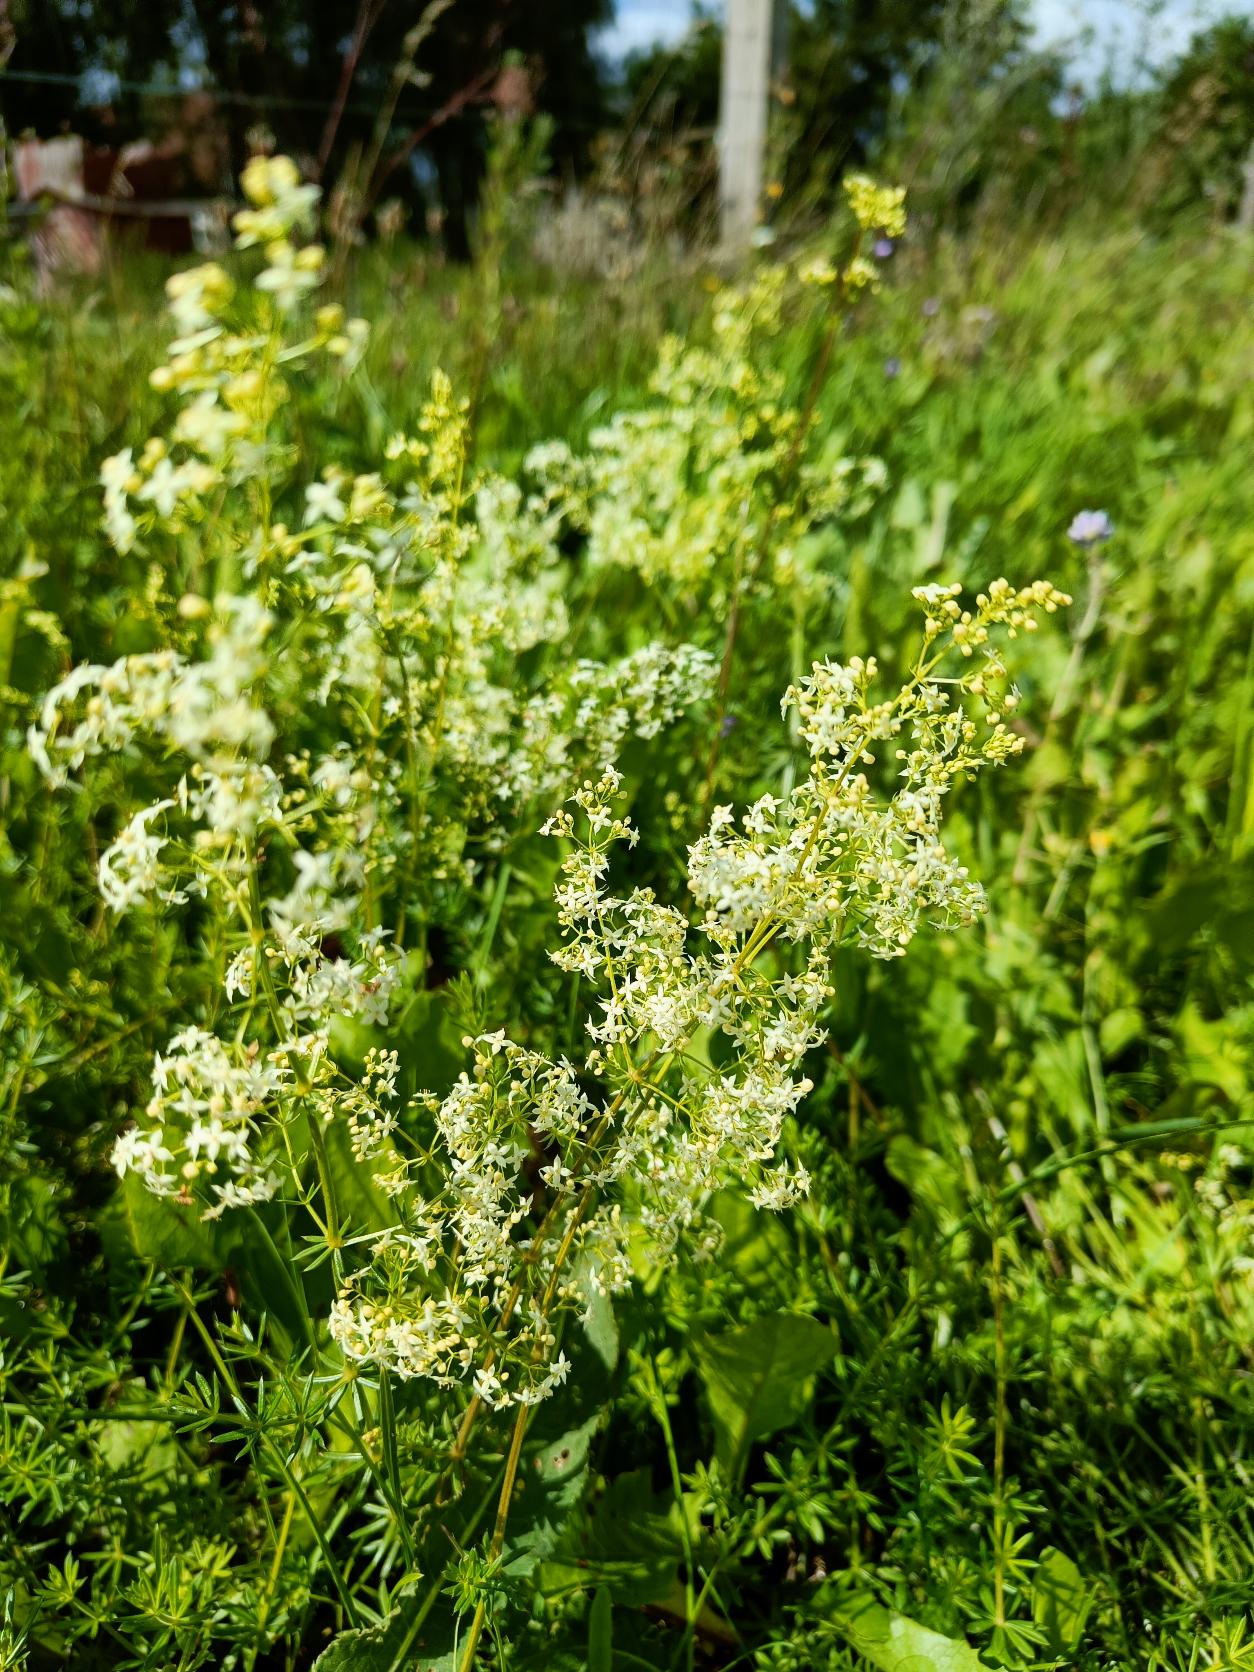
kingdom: Plantae
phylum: Tracheophyta
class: Magnoliopsida
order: Gentianales
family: Rubiaceae
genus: Galium
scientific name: Galium mollugo
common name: Hvid snerre
